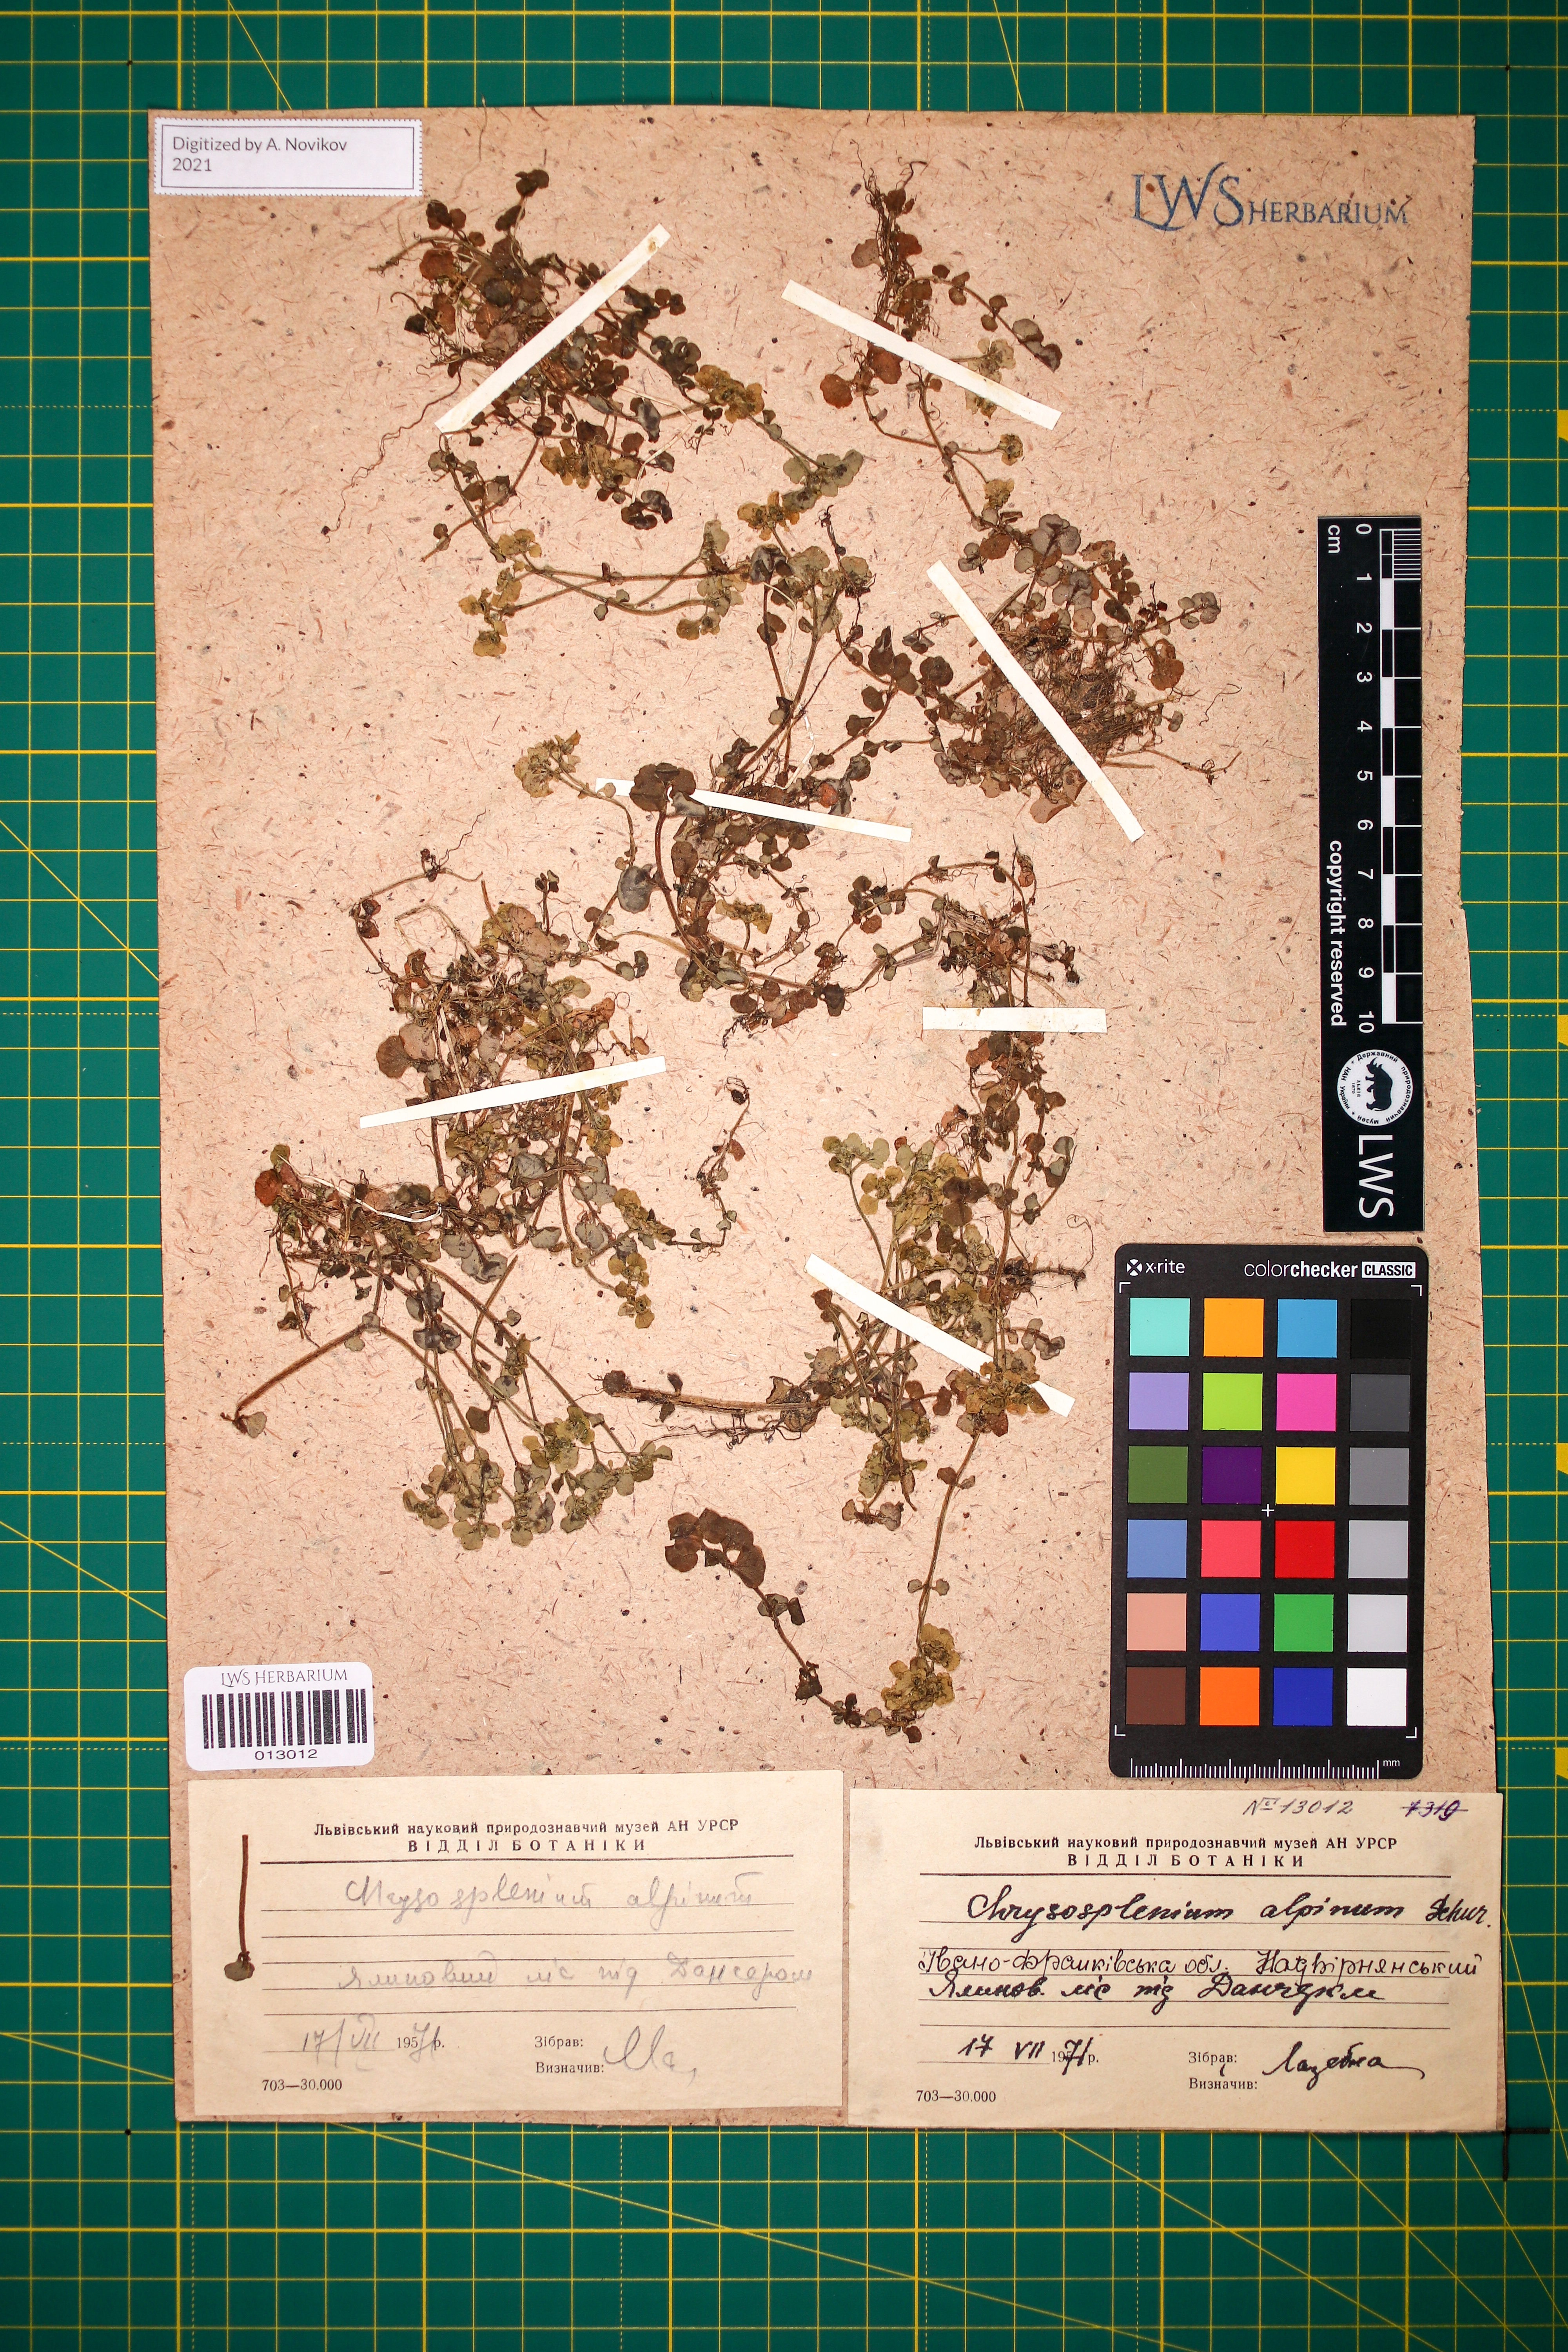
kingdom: Plantae
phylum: Tracheophyta
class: Magnoliopsida
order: Saxifragales
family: Saxifragaceae
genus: Chrysosplenium
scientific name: Chrysosplenium alpinum
